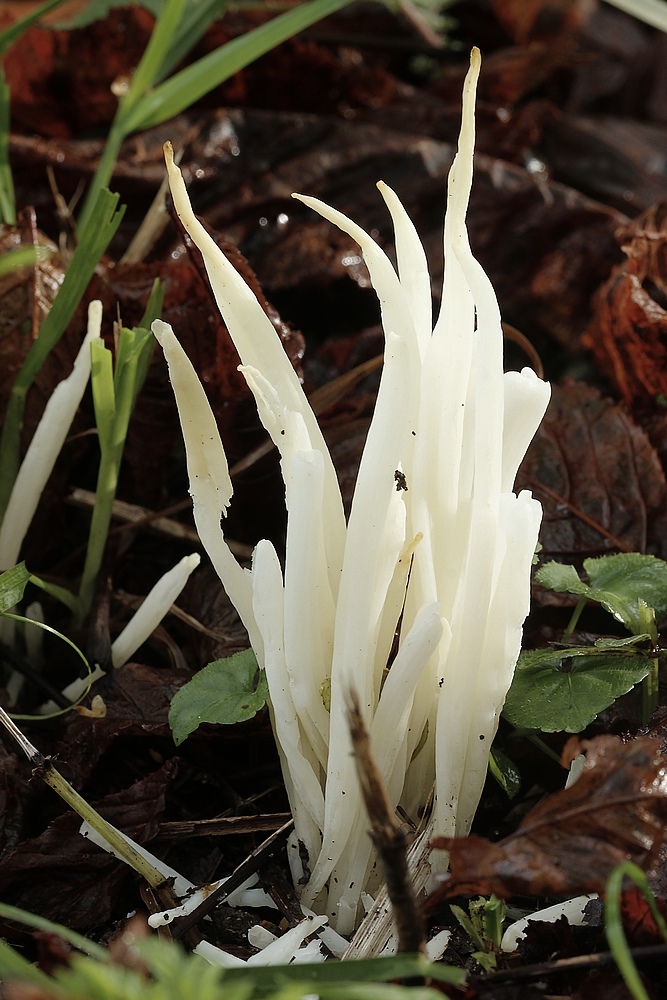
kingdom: Fungi
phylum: Basidiomycota
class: Agaricomycetes
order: Agaricales
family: Clavariaceae
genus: Clavaria
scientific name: Clavaria fragilis
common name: bugtet køllesvamp
